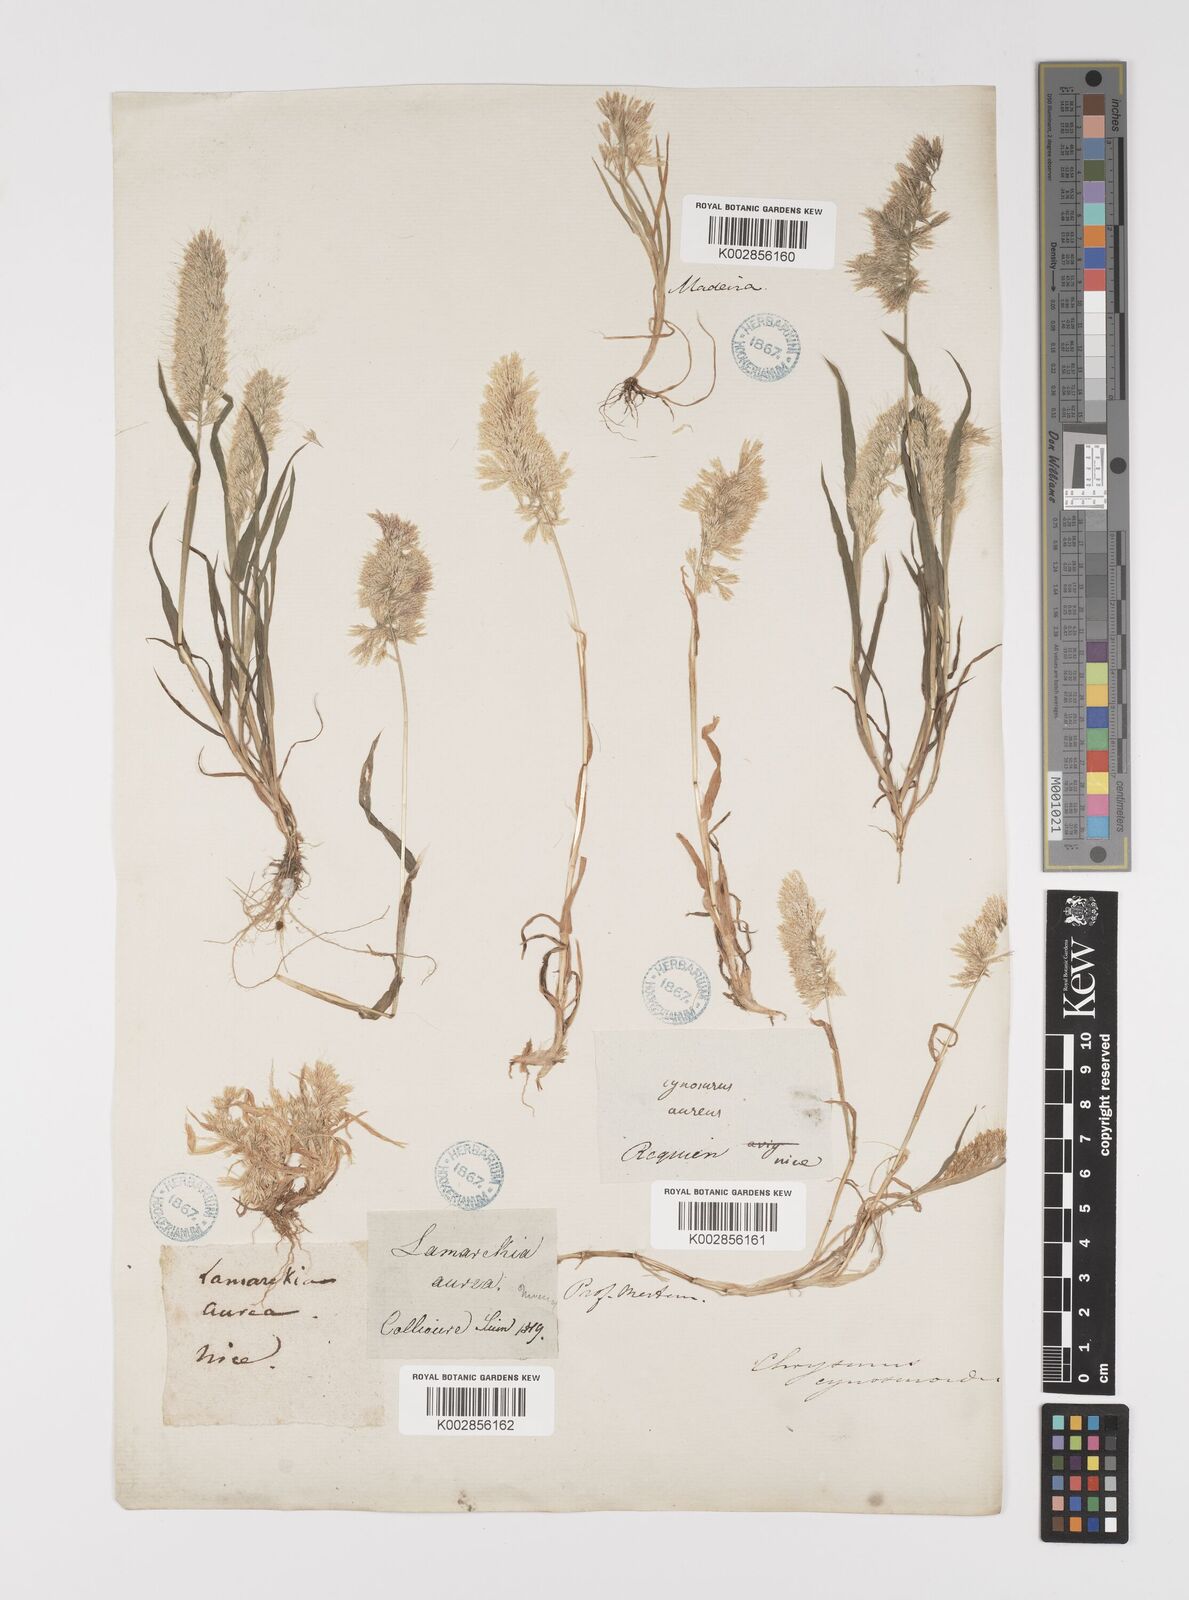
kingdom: Plantae
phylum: Tracheophyta
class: Liliopsida
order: Poales
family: Poaceae
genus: Lamarckia
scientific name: Lamarckia aurea
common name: Golden dog's-tail
